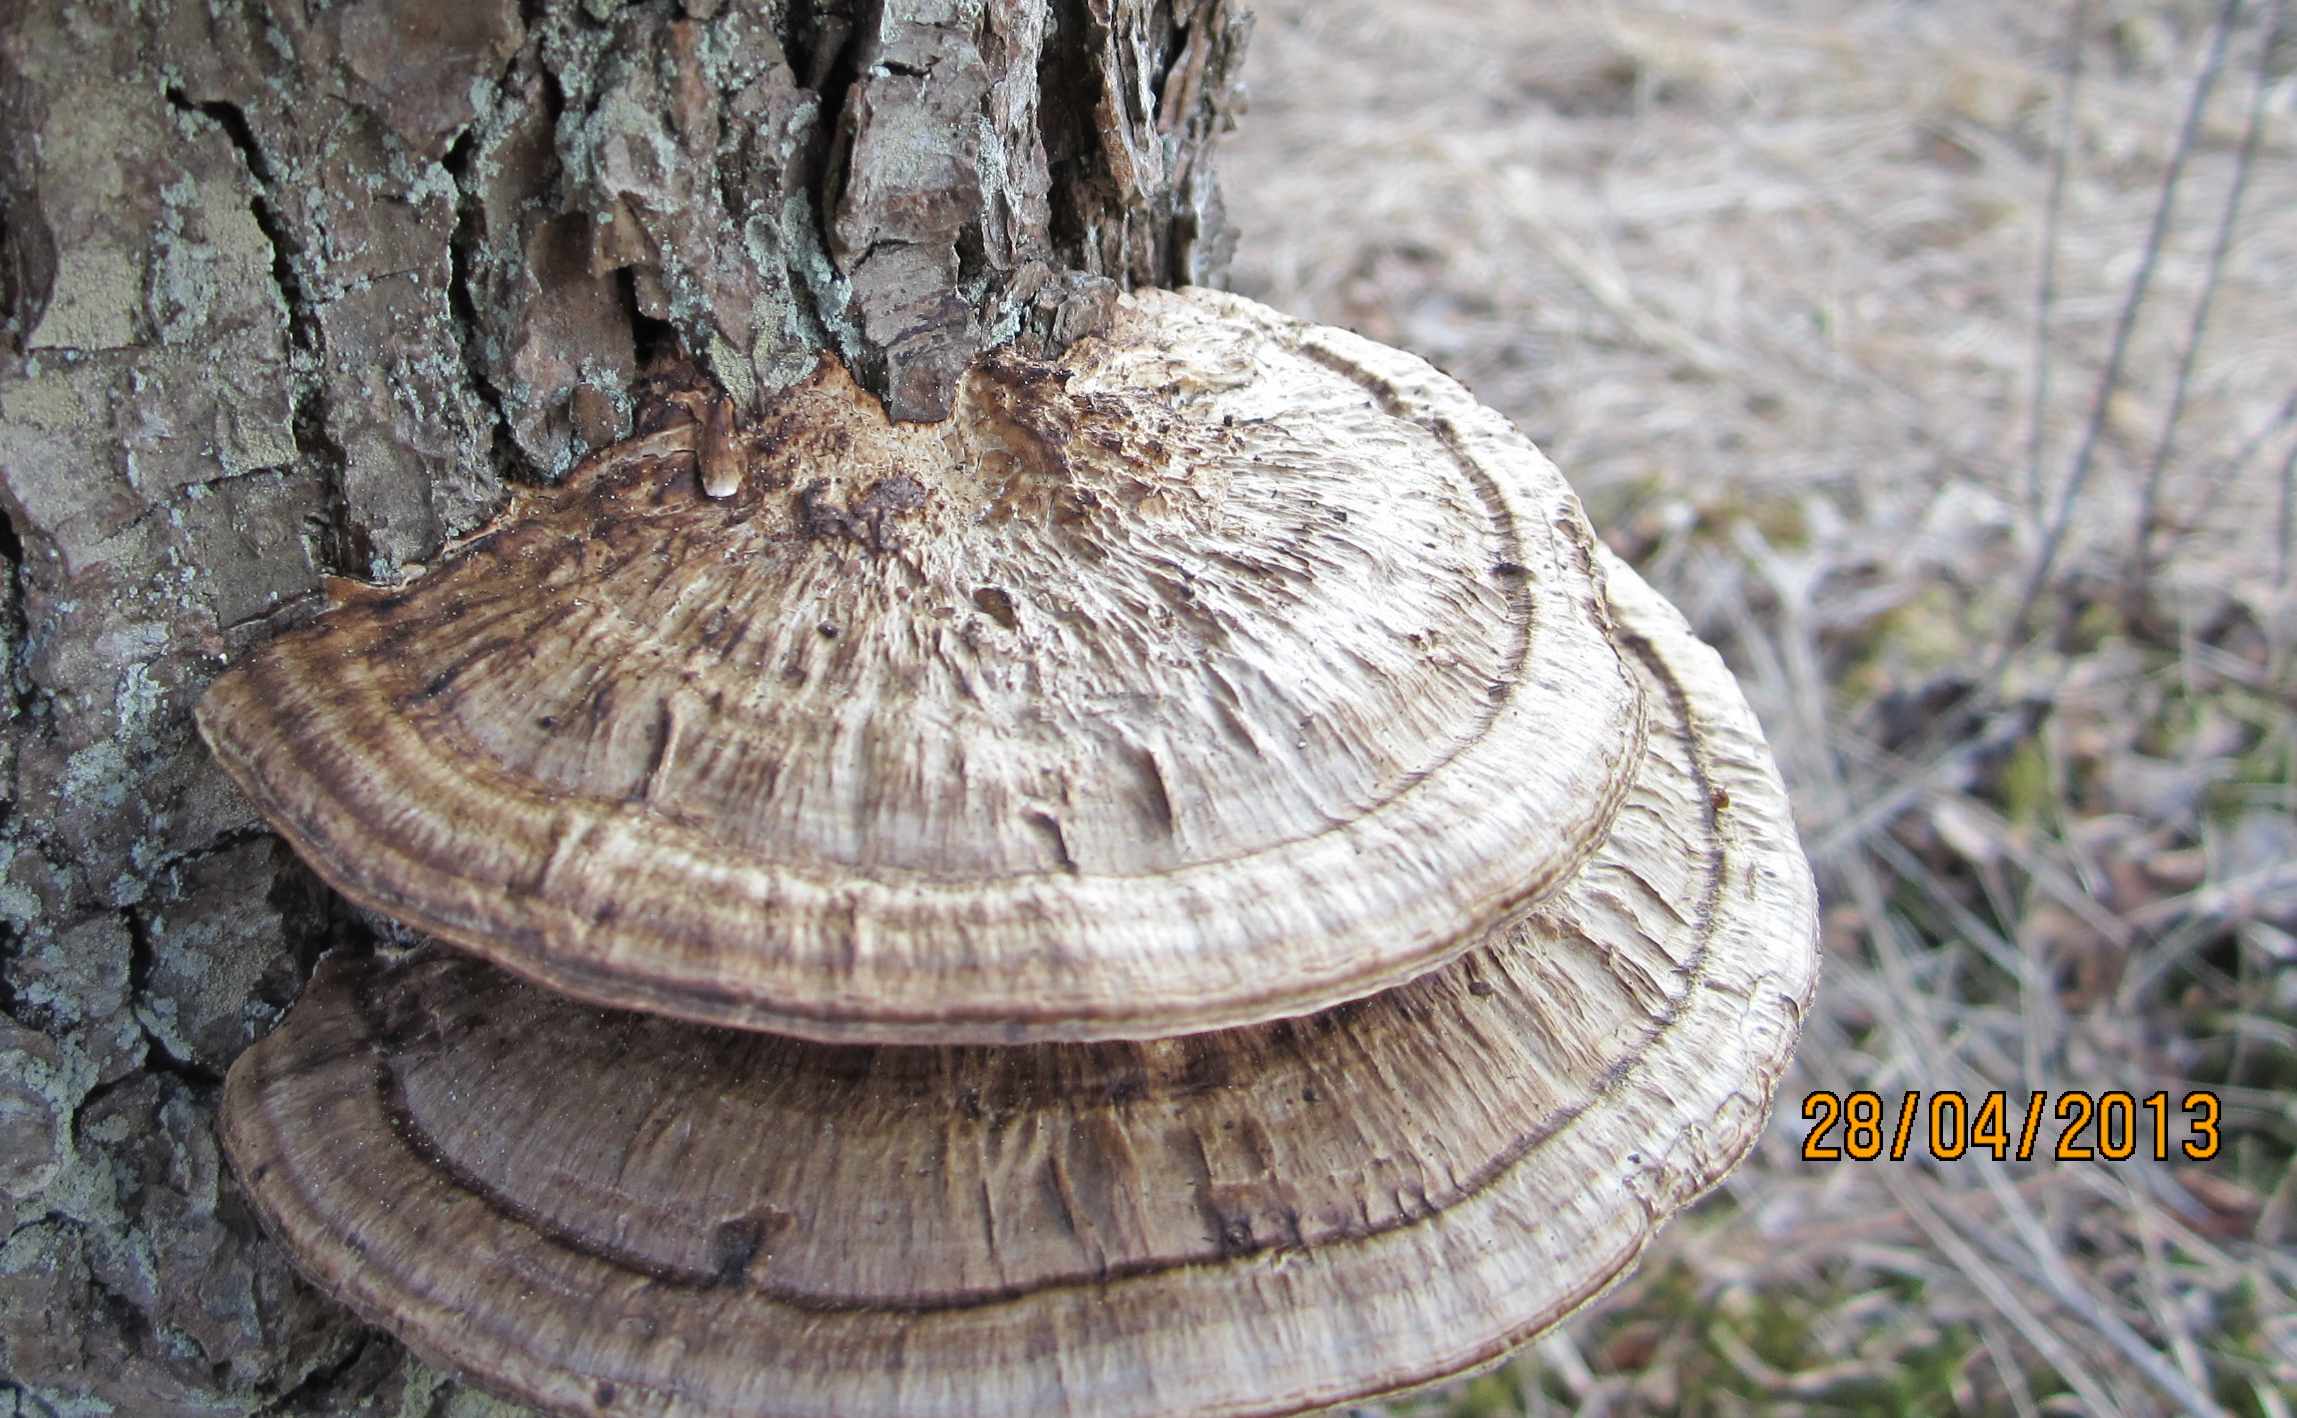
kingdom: Fungi
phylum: Basidiomycota
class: Agaricomycetes
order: Polyporales
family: Polyporaceae
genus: Daedaleopsis
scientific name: Daedaleopsis confragosa
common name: rødmende læderporesvamp
